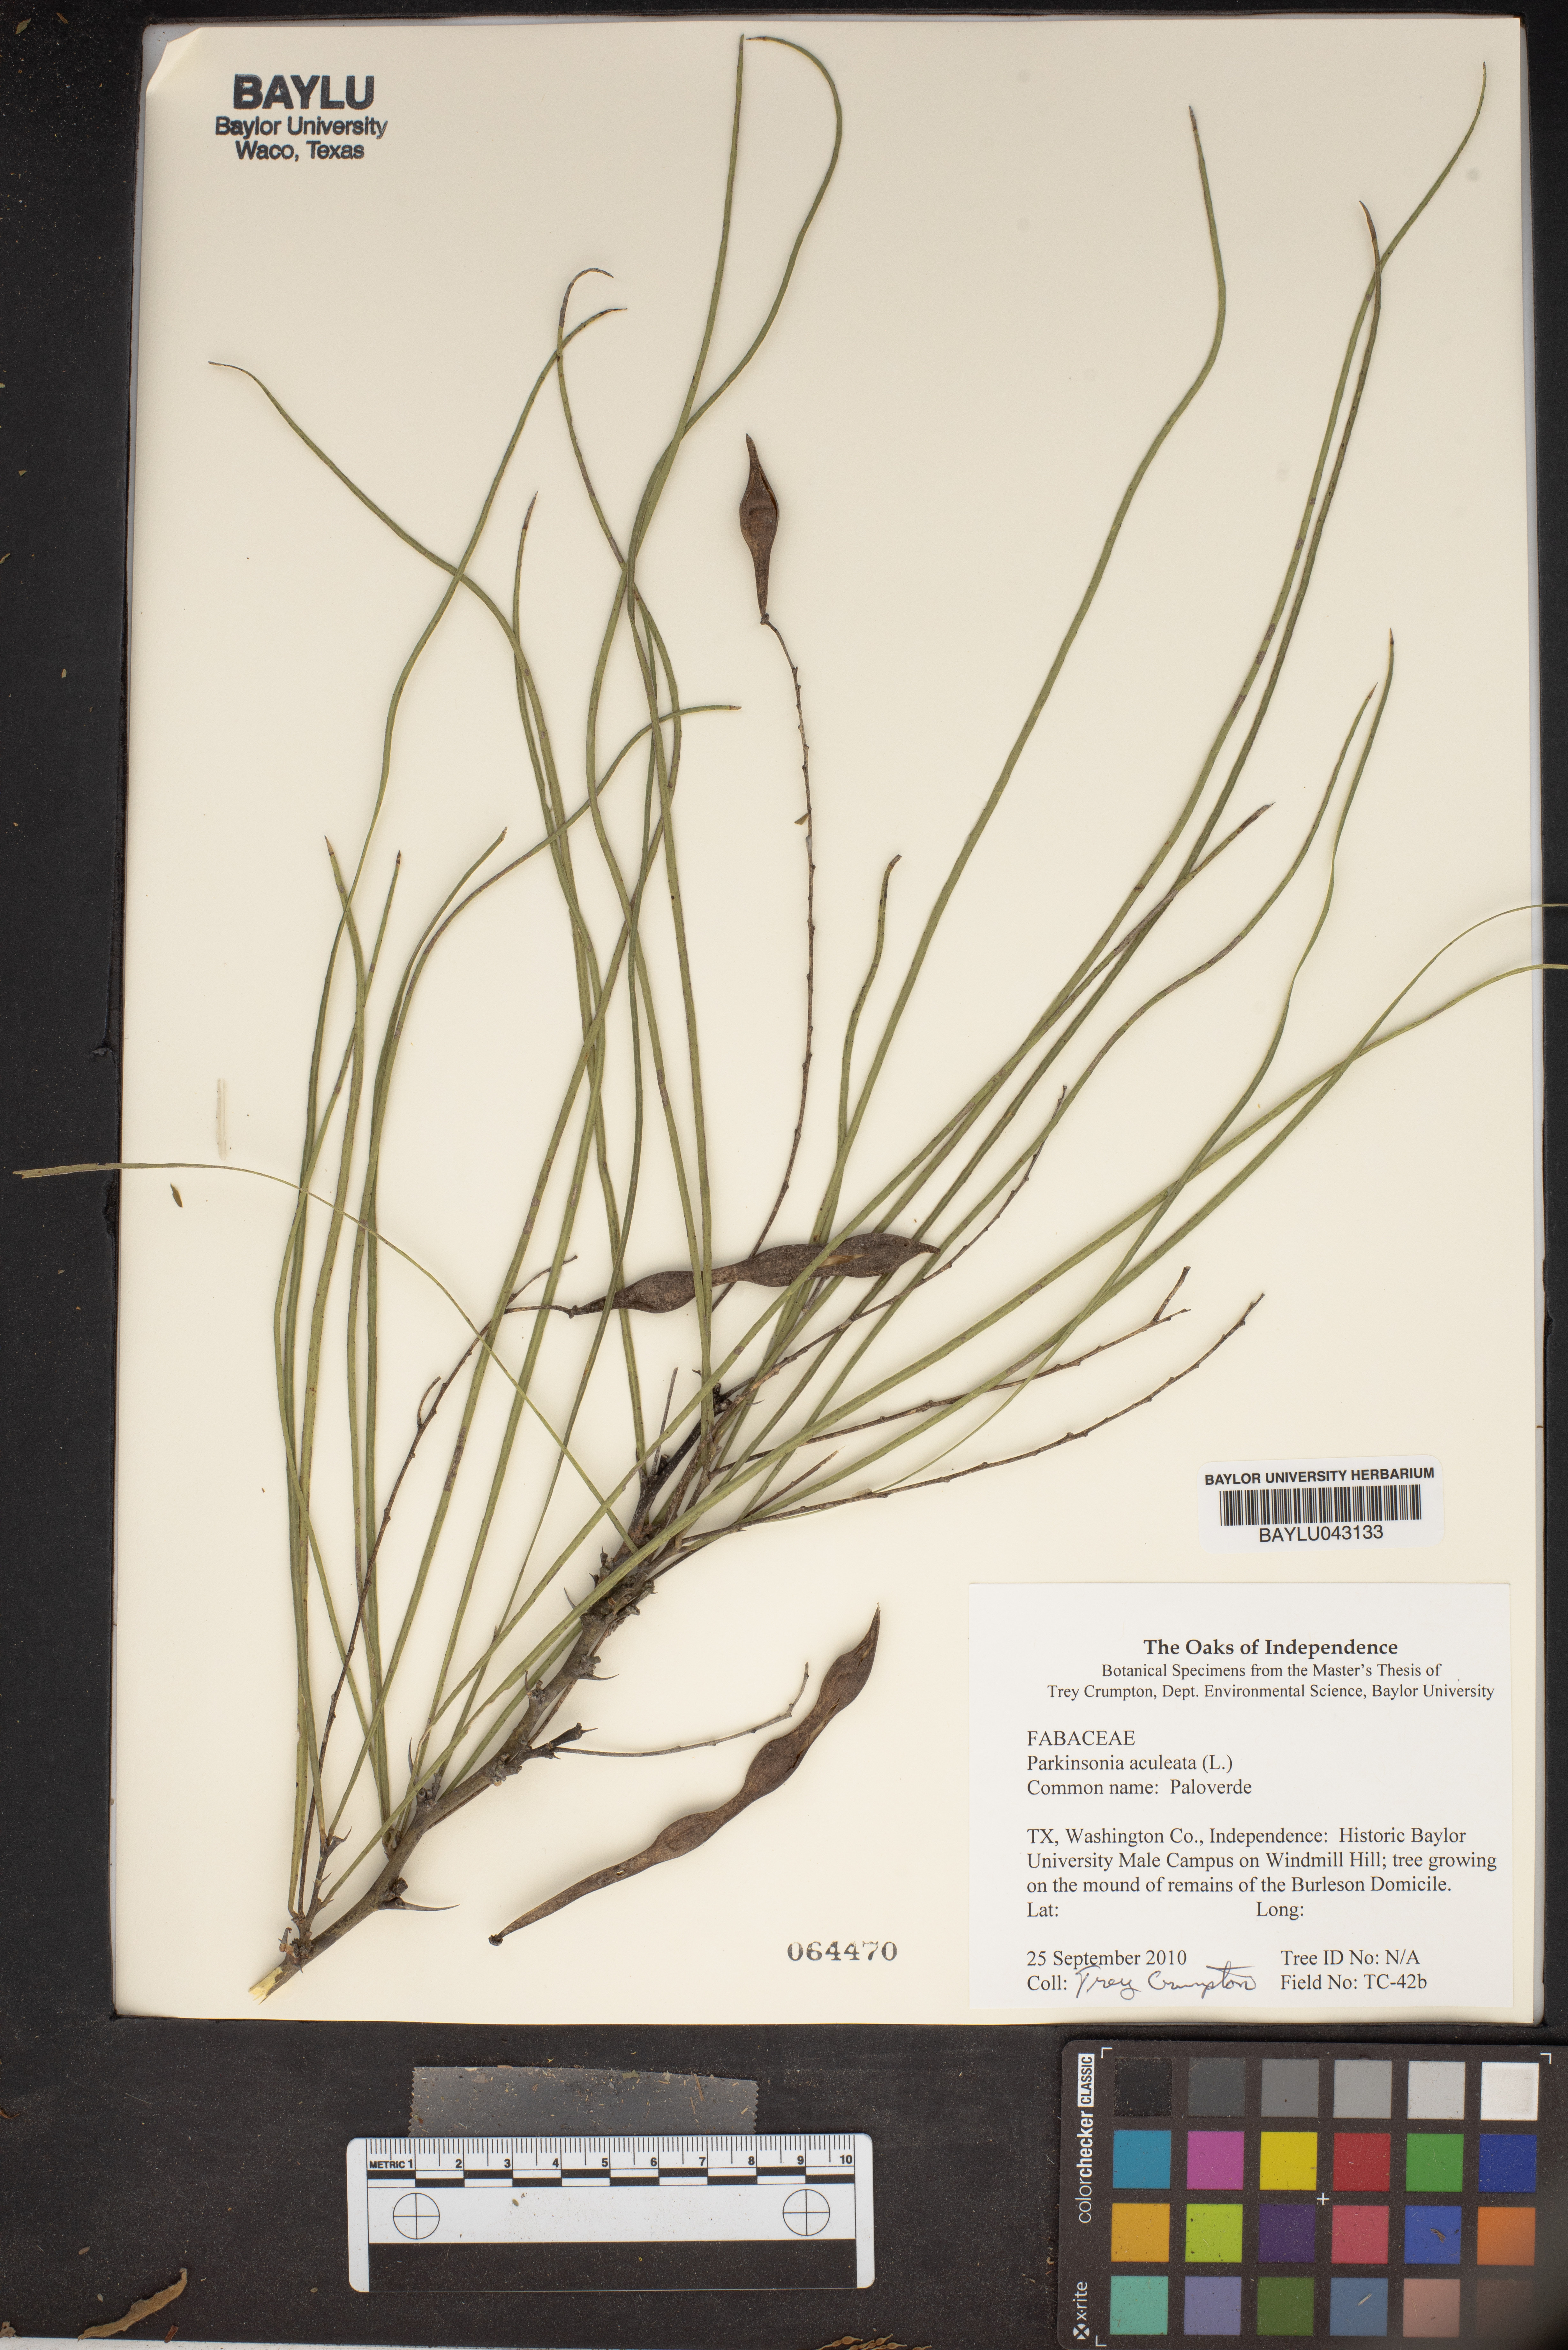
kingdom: Plantae
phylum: Tracheophyta
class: Magnoliopsida
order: Fabales
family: Fabaceae
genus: Parkinsonia
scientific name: Parkinsonia aculeata
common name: Jerusalem thorn
